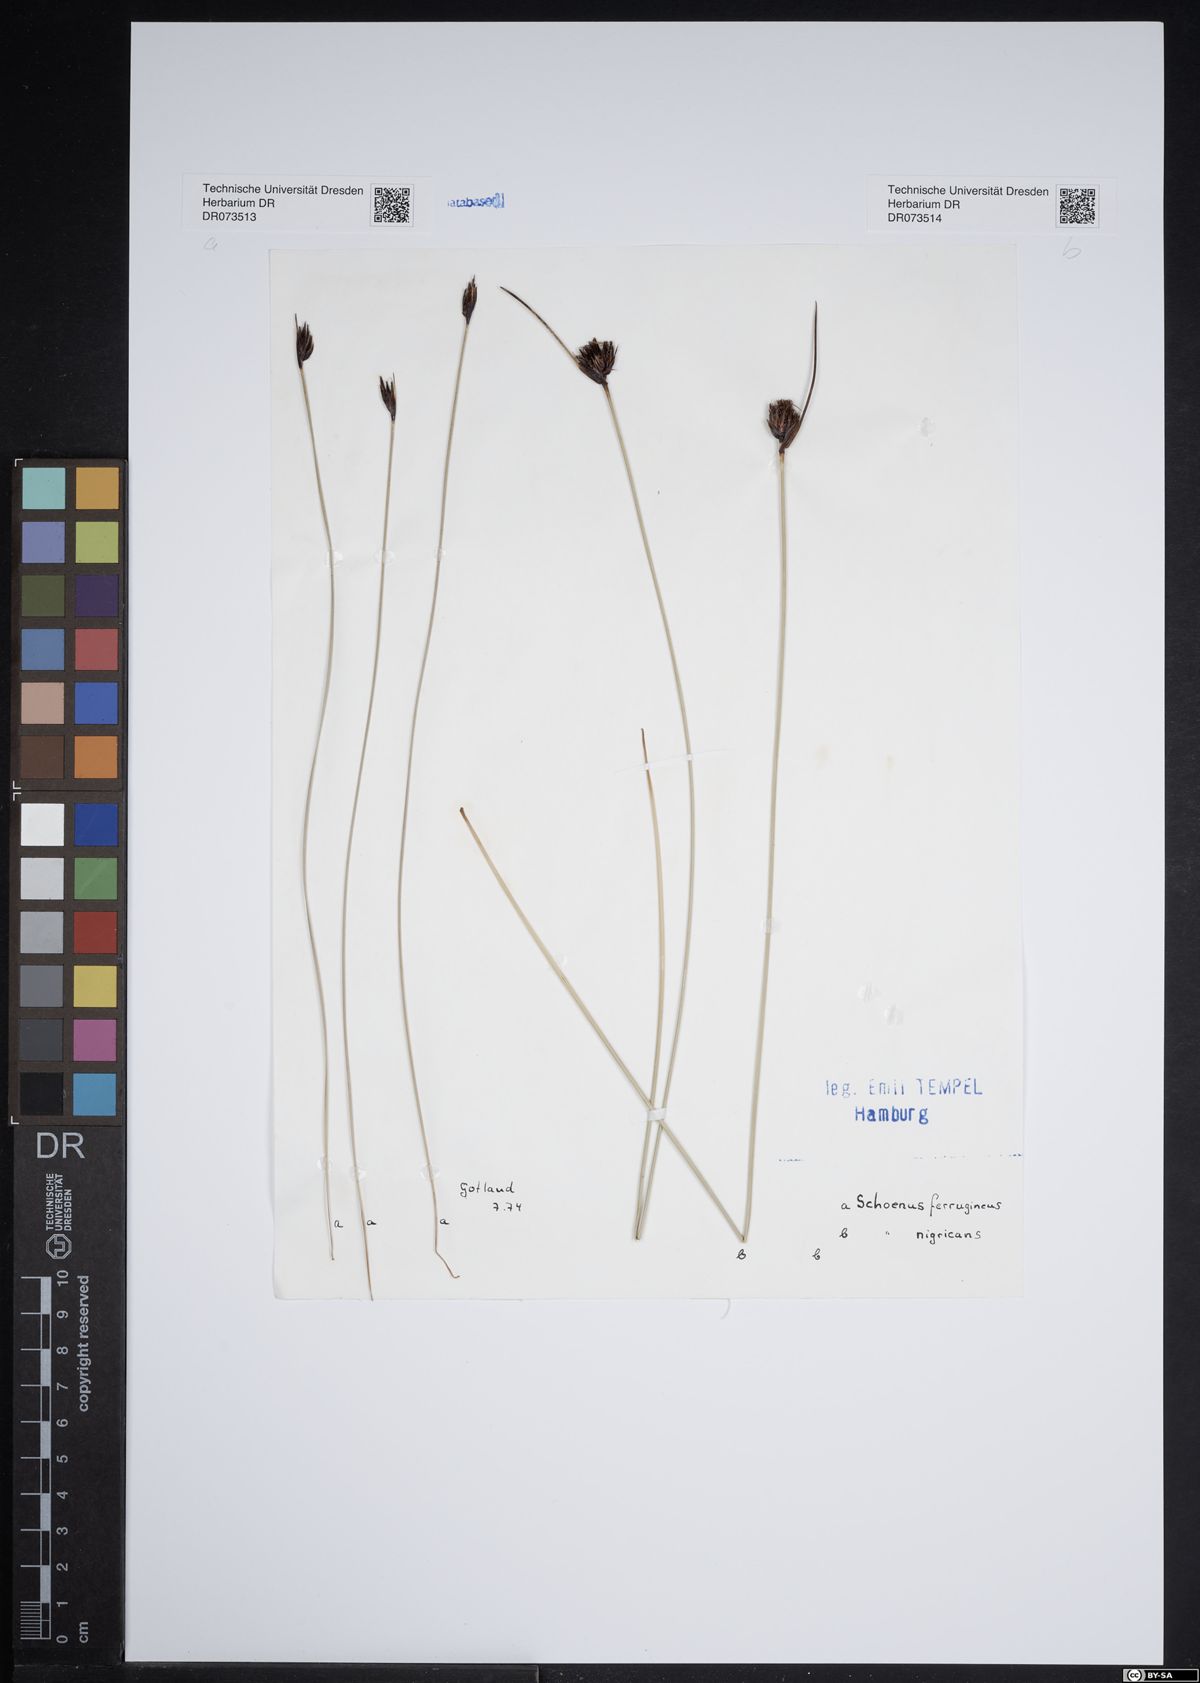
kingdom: Plantae
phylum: Tracheophyta
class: Liliopsida
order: Poales
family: Cyperaceae
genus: Schoenus
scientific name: Schoenus nigricans
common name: Black bog-rush
